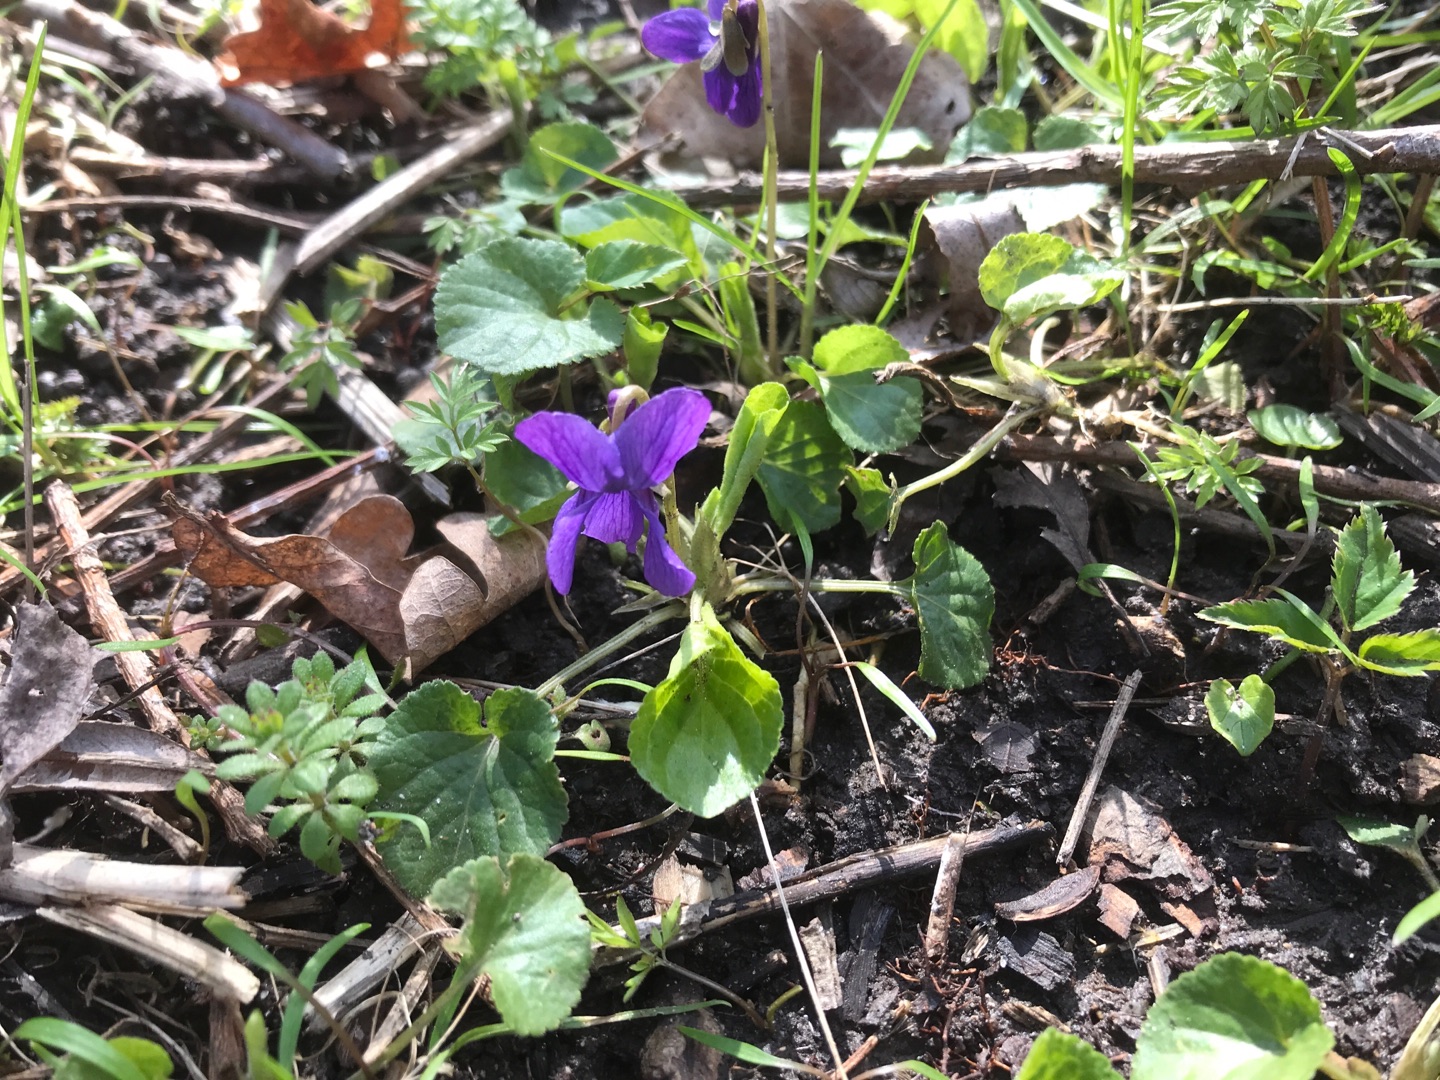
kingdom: Plantae
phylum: Tracheophyta
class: Magnoliopsida
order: Malpighiales
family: Violaceae
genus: Viola
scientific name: Viola odorata
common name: Marts-viol
